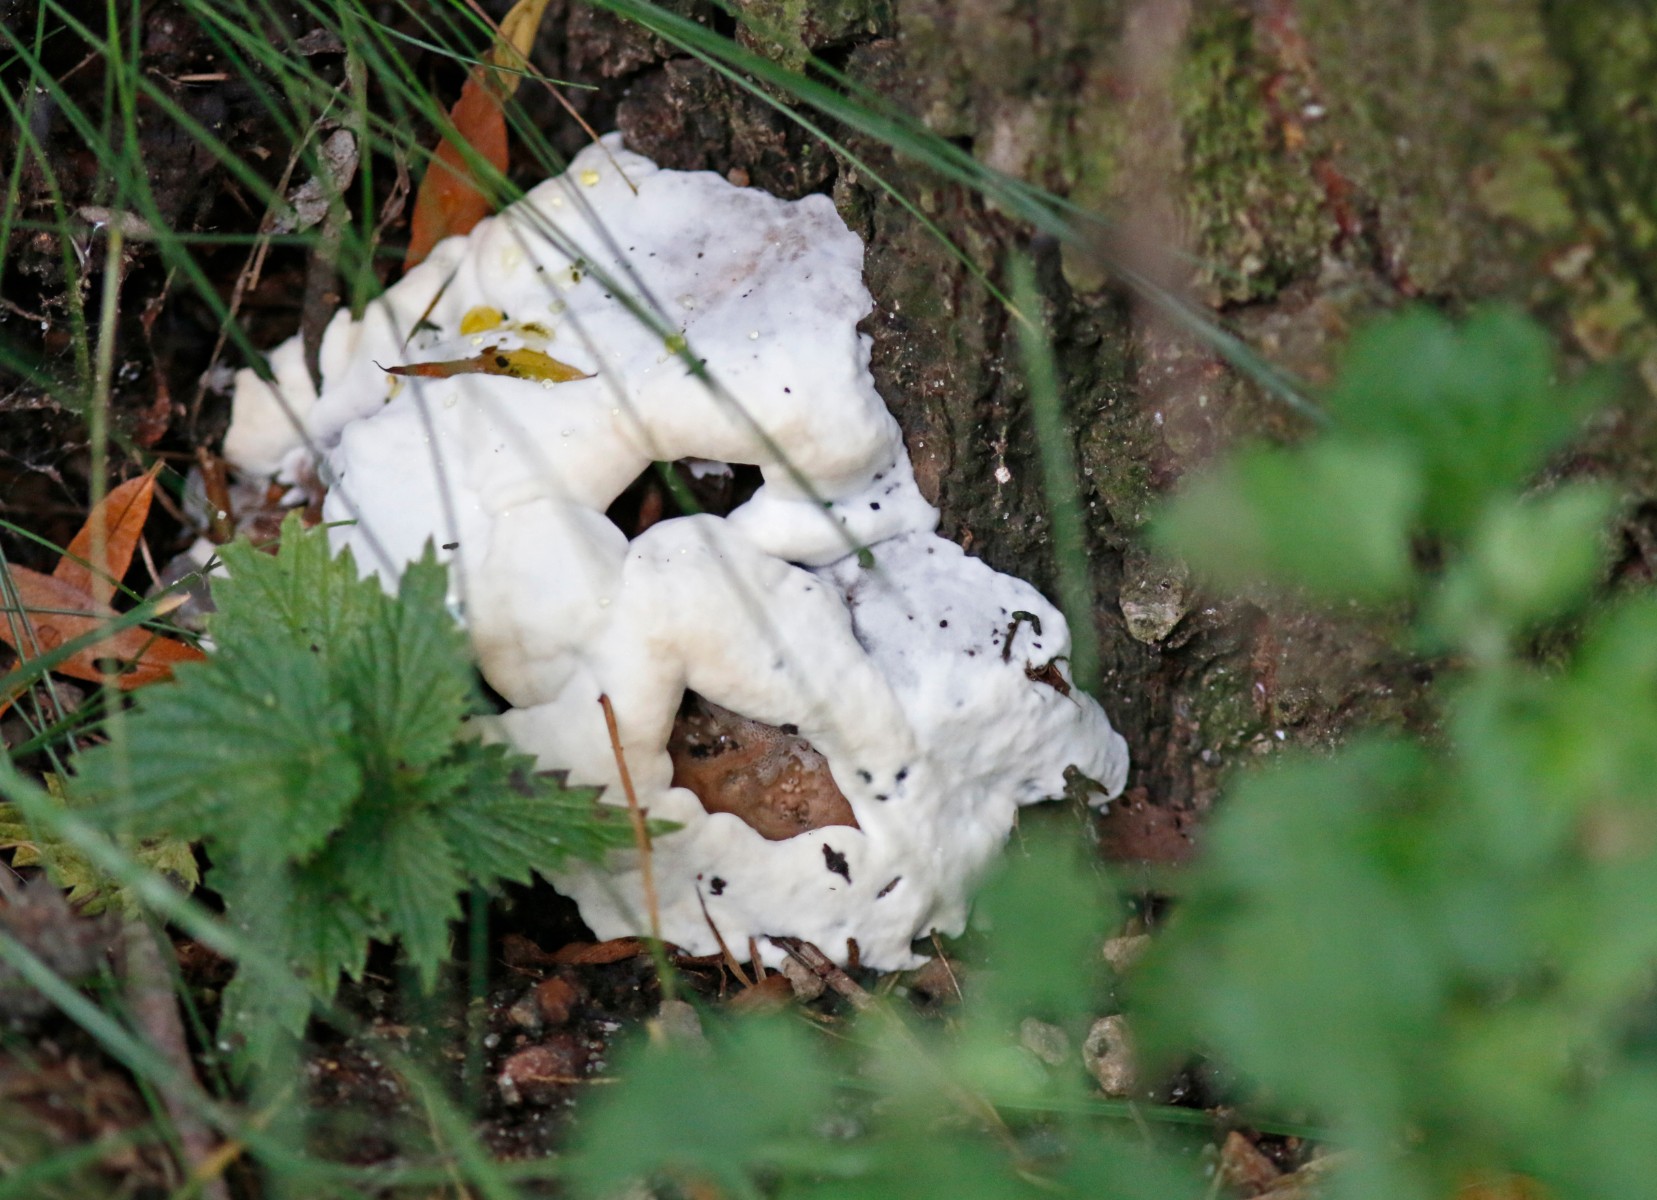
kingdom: Fungi
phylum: Basidiomycota
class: Agaricomycetes
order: Polyporales
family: Fomitopsidaceae
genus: Fomitopsis
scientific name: Fomitopsis pinicola
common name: randbæltet hovporesvamp
